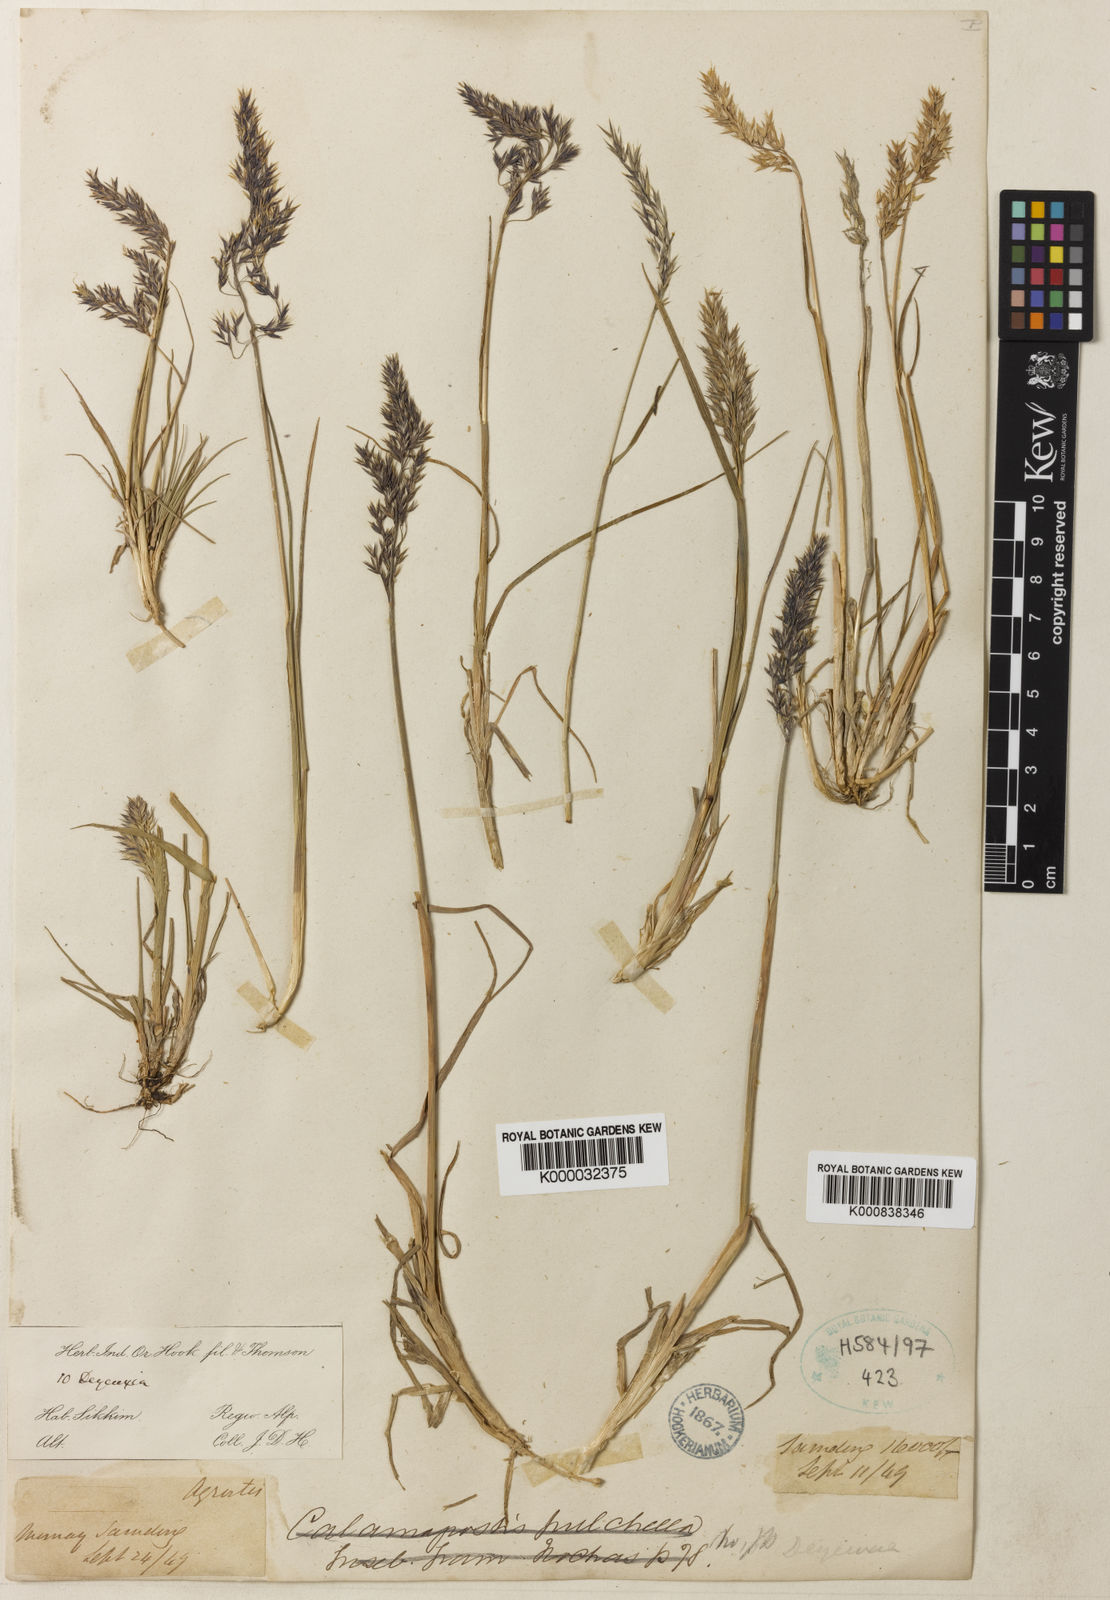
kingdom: Plantae
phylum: Tracheophyta
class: Liliopsida
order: Poales
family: Poaceae
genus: Calamagrostis
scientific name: Calamagrostis lahulensis
